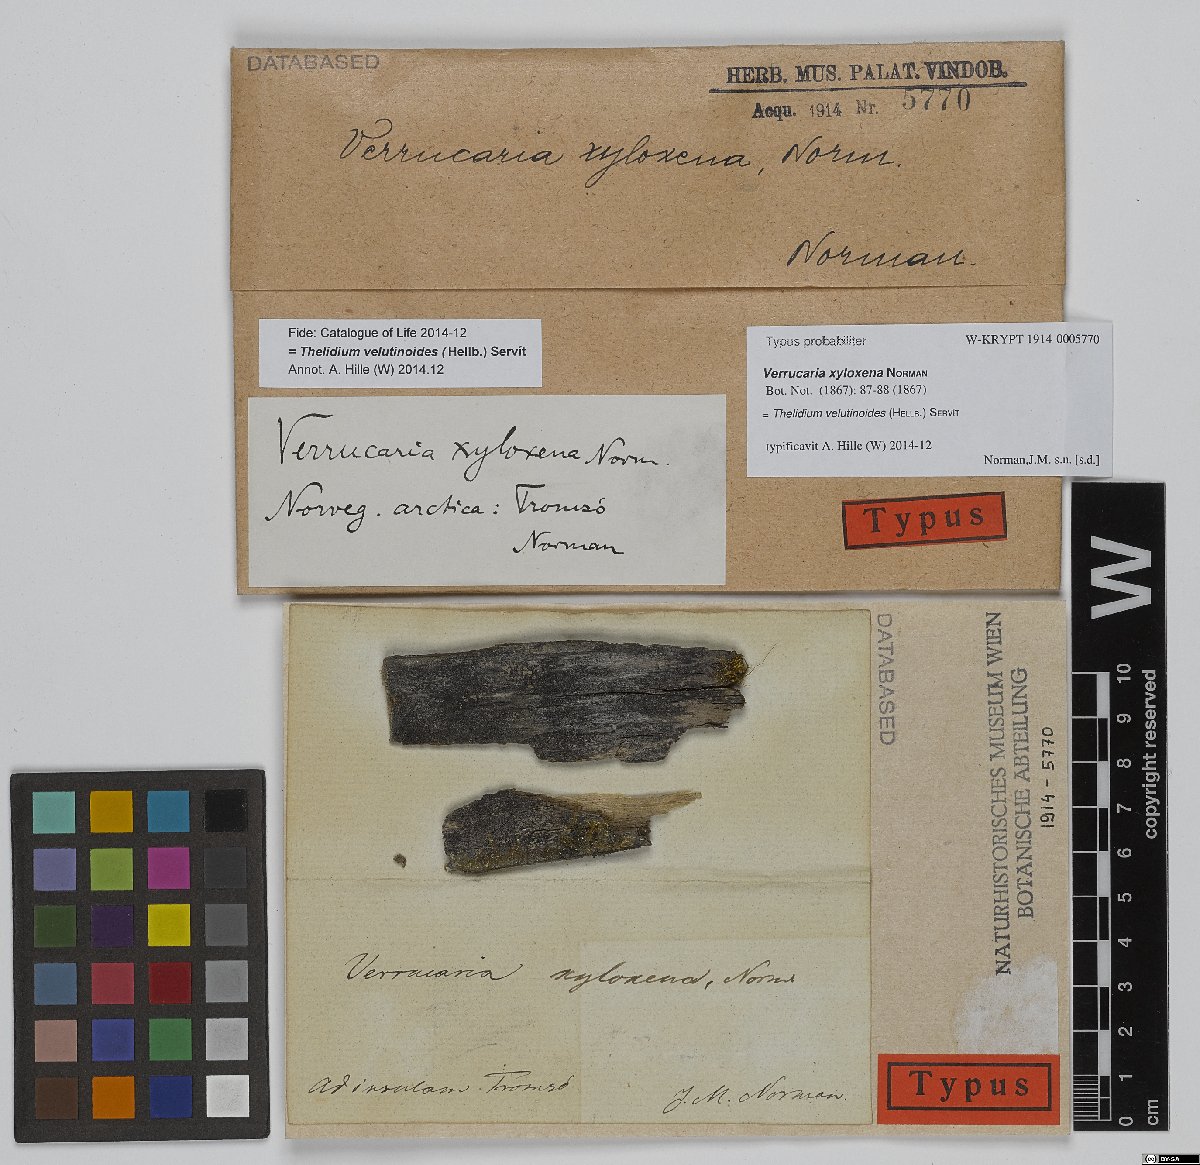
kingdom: Fungi
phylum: Ascomycota
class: Eurotiomycetes
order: Verrucariales
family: Verrucariaceae
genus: Verrucaria
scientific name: Verrucaria xyloxena
